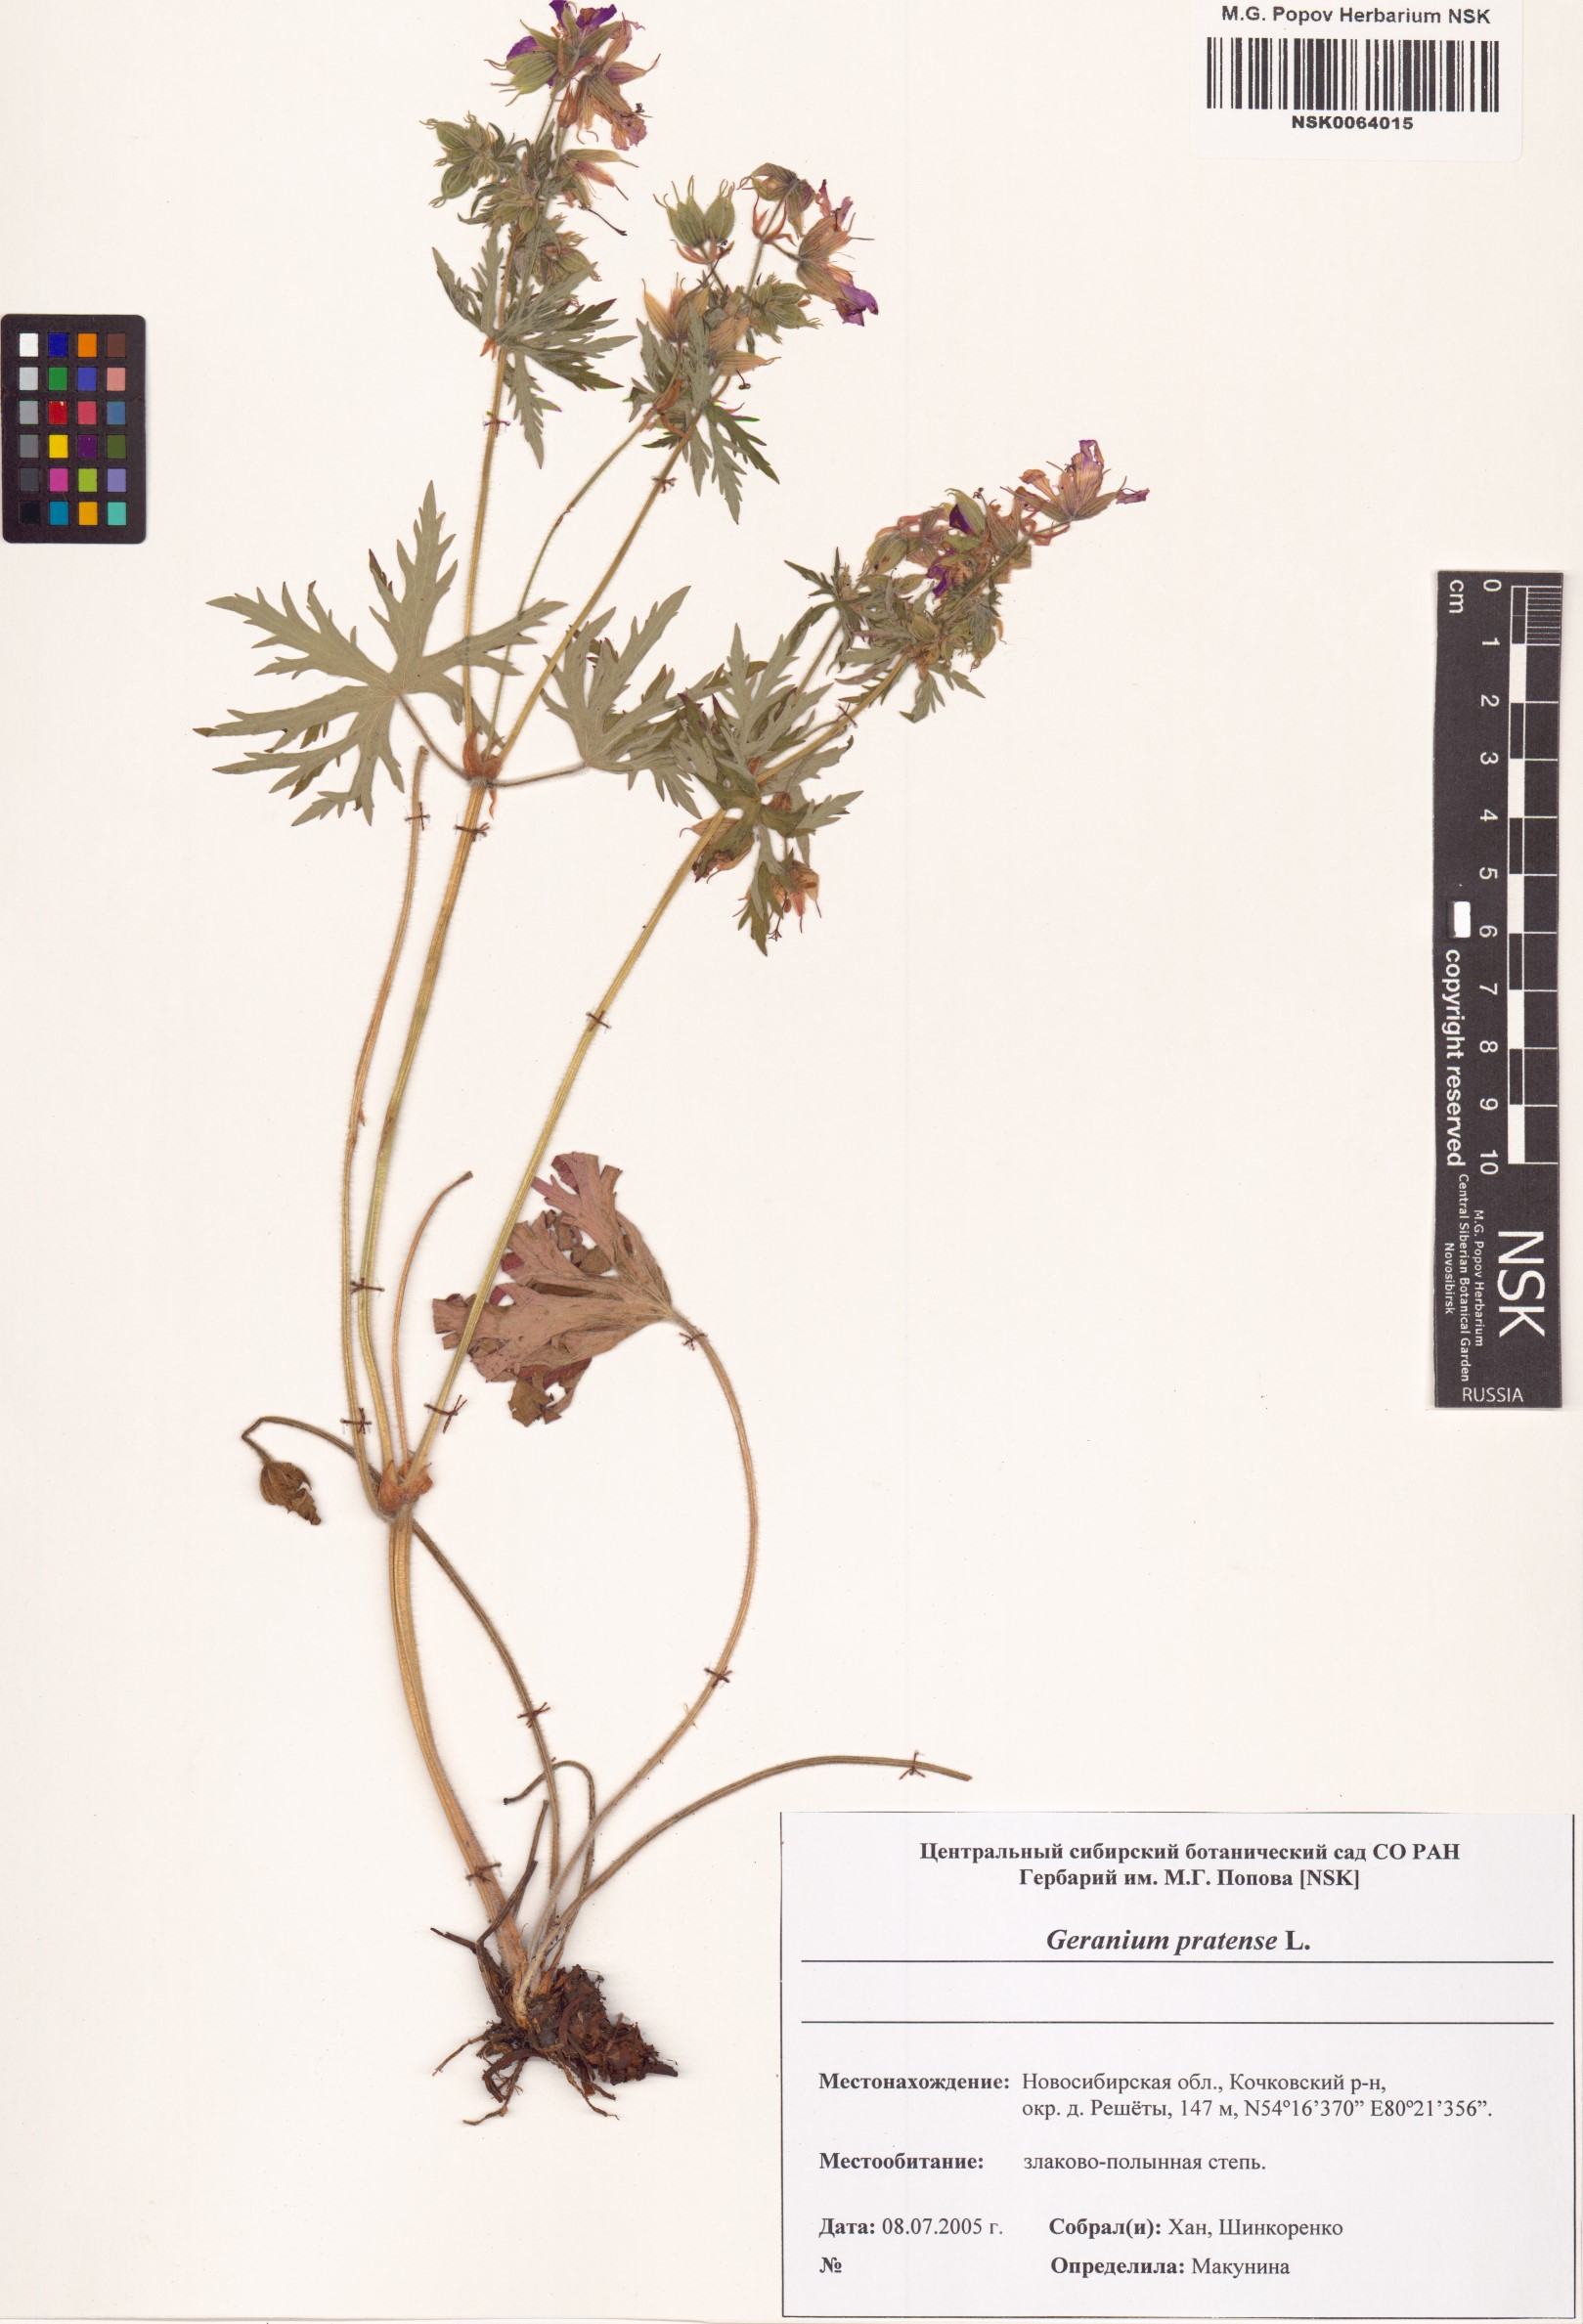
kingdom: Plantae
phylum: Tracheophyta
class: Magnoliopsida
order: Geraniales
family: Geraniaceae
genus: Geranium
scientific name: Geranium pratense
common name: Meadow crane's-bill
